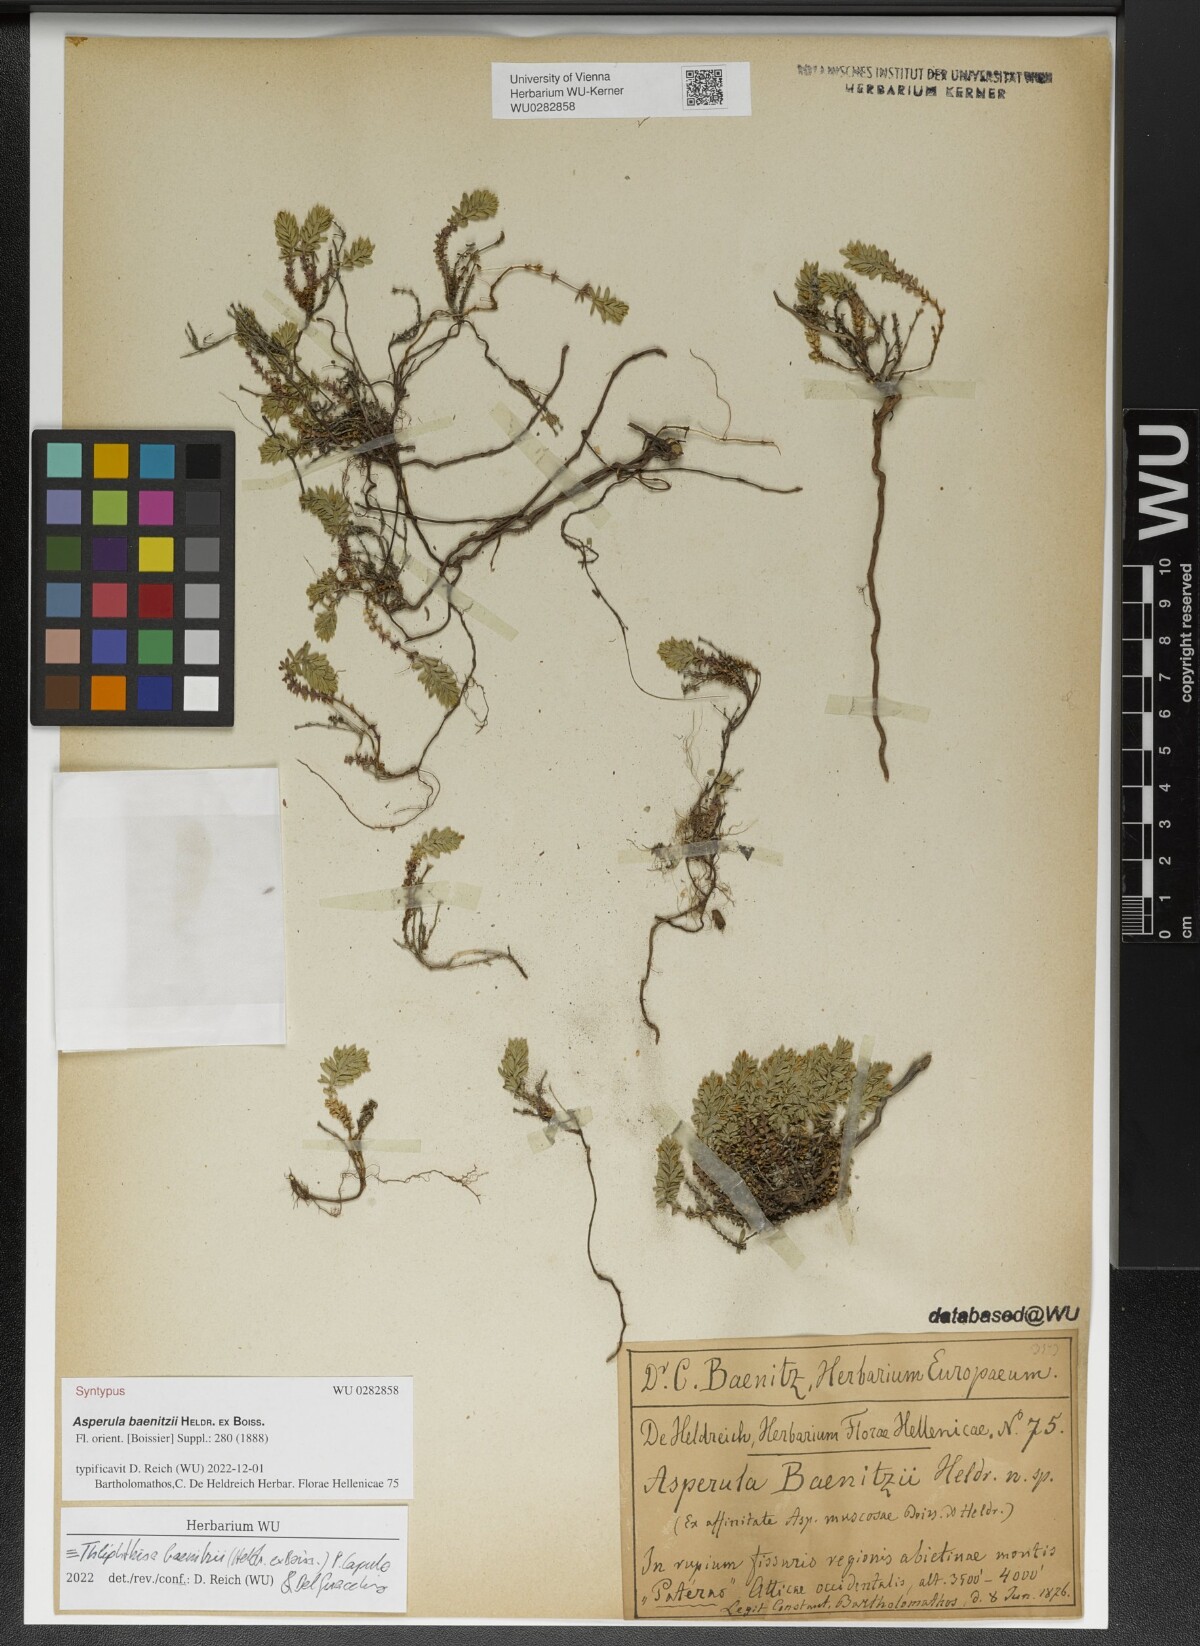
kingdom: Plantae
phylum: Tracheophyta
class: Magnoliopsida
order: Gentianales
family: Rubiaceae
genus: Thliphthisa
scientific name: Thliphthisa baenitzii
